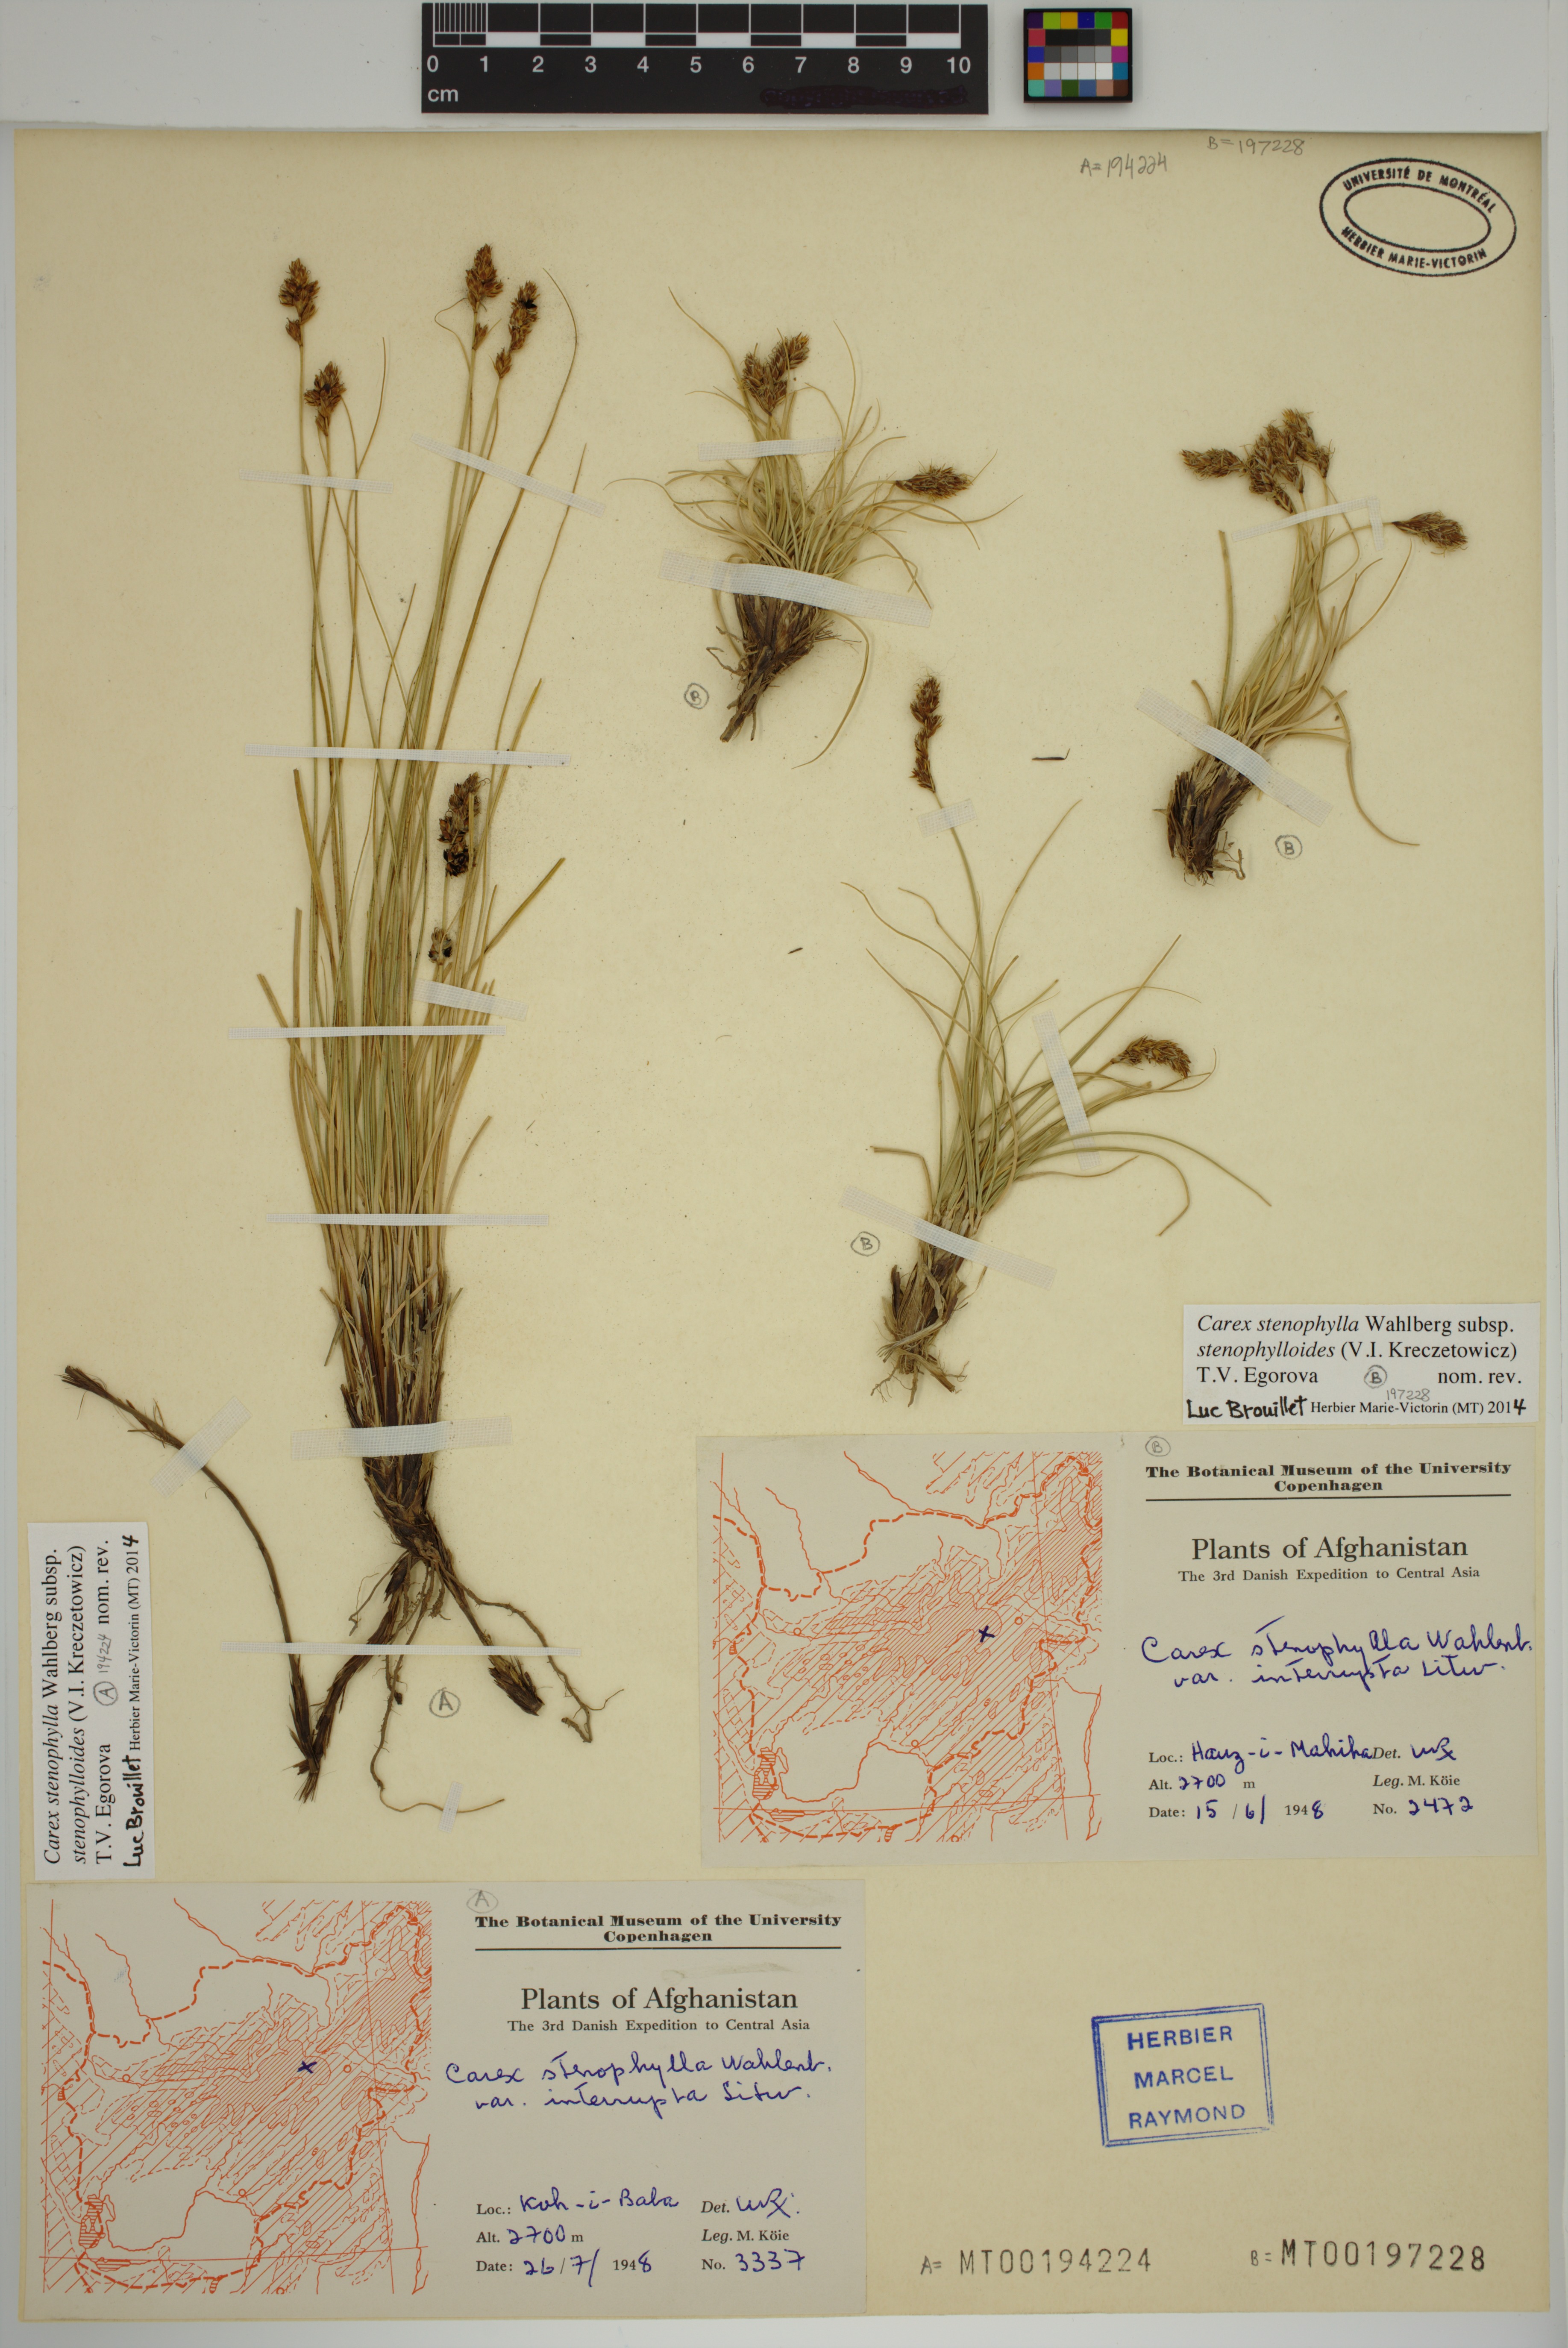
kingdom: Plantae
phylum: Tracheophyta
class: Liliopsida
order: Poales
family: Cyperaceae
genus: Carex
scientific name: Carex stenophylla
